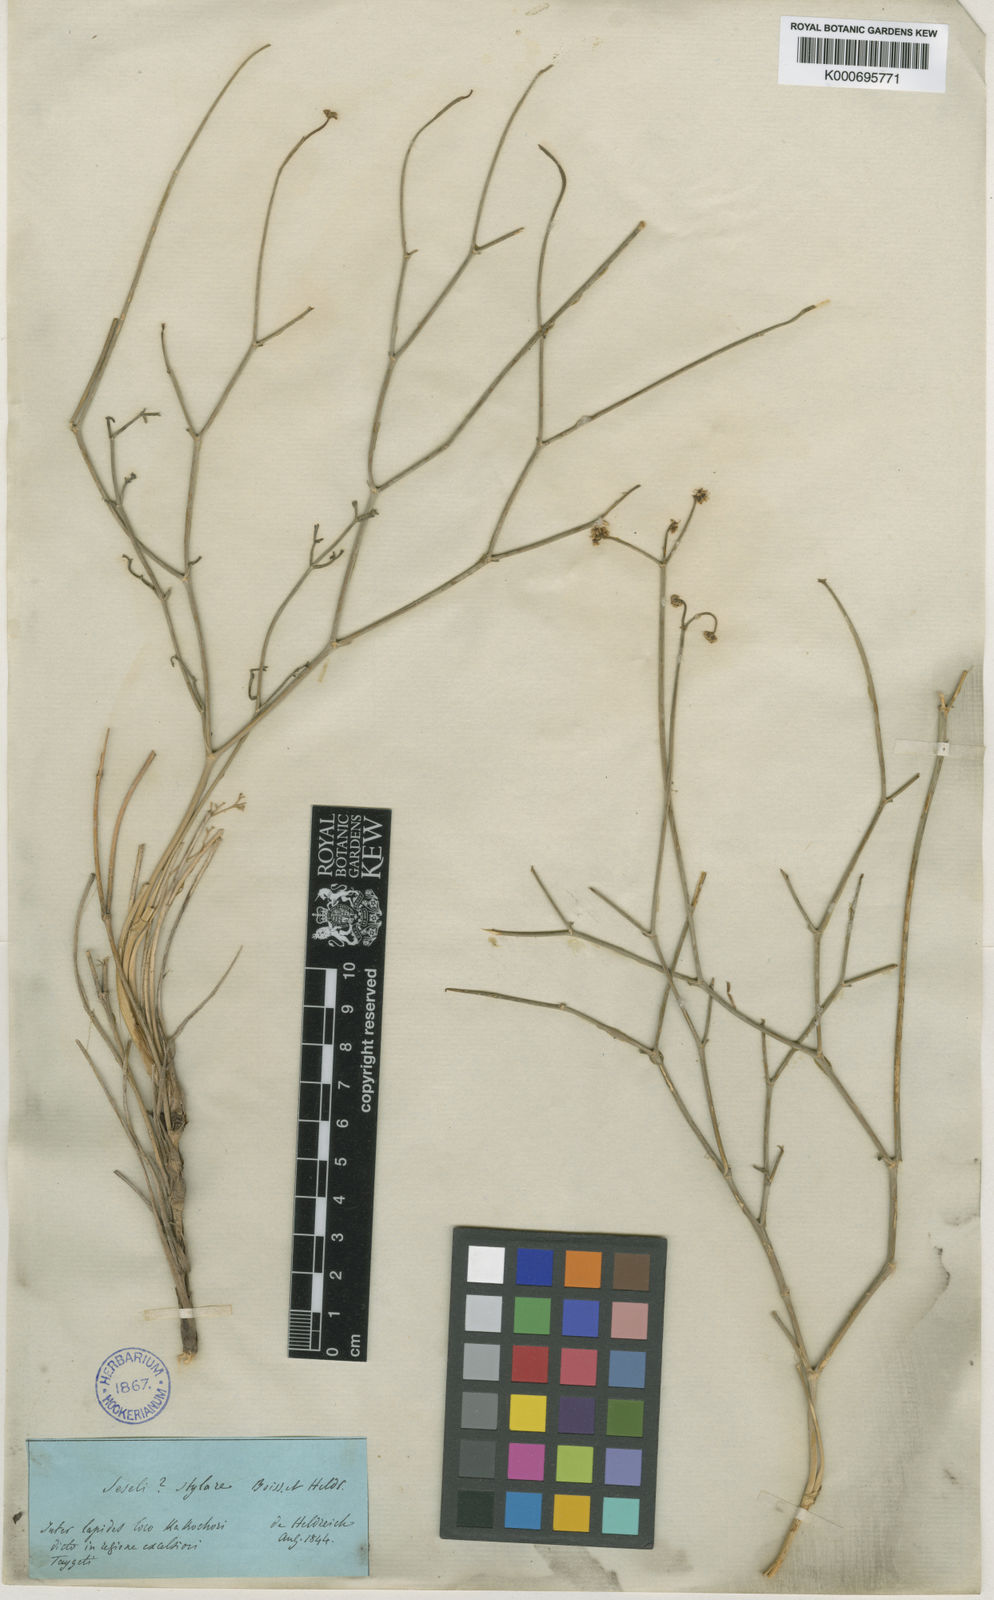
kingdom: Plantae
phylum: Tracheophyta
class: Magnoliopsida
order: Apiales
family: Apiaceae
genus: Thamnosciadium
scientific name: Thamnosciadium junceum
